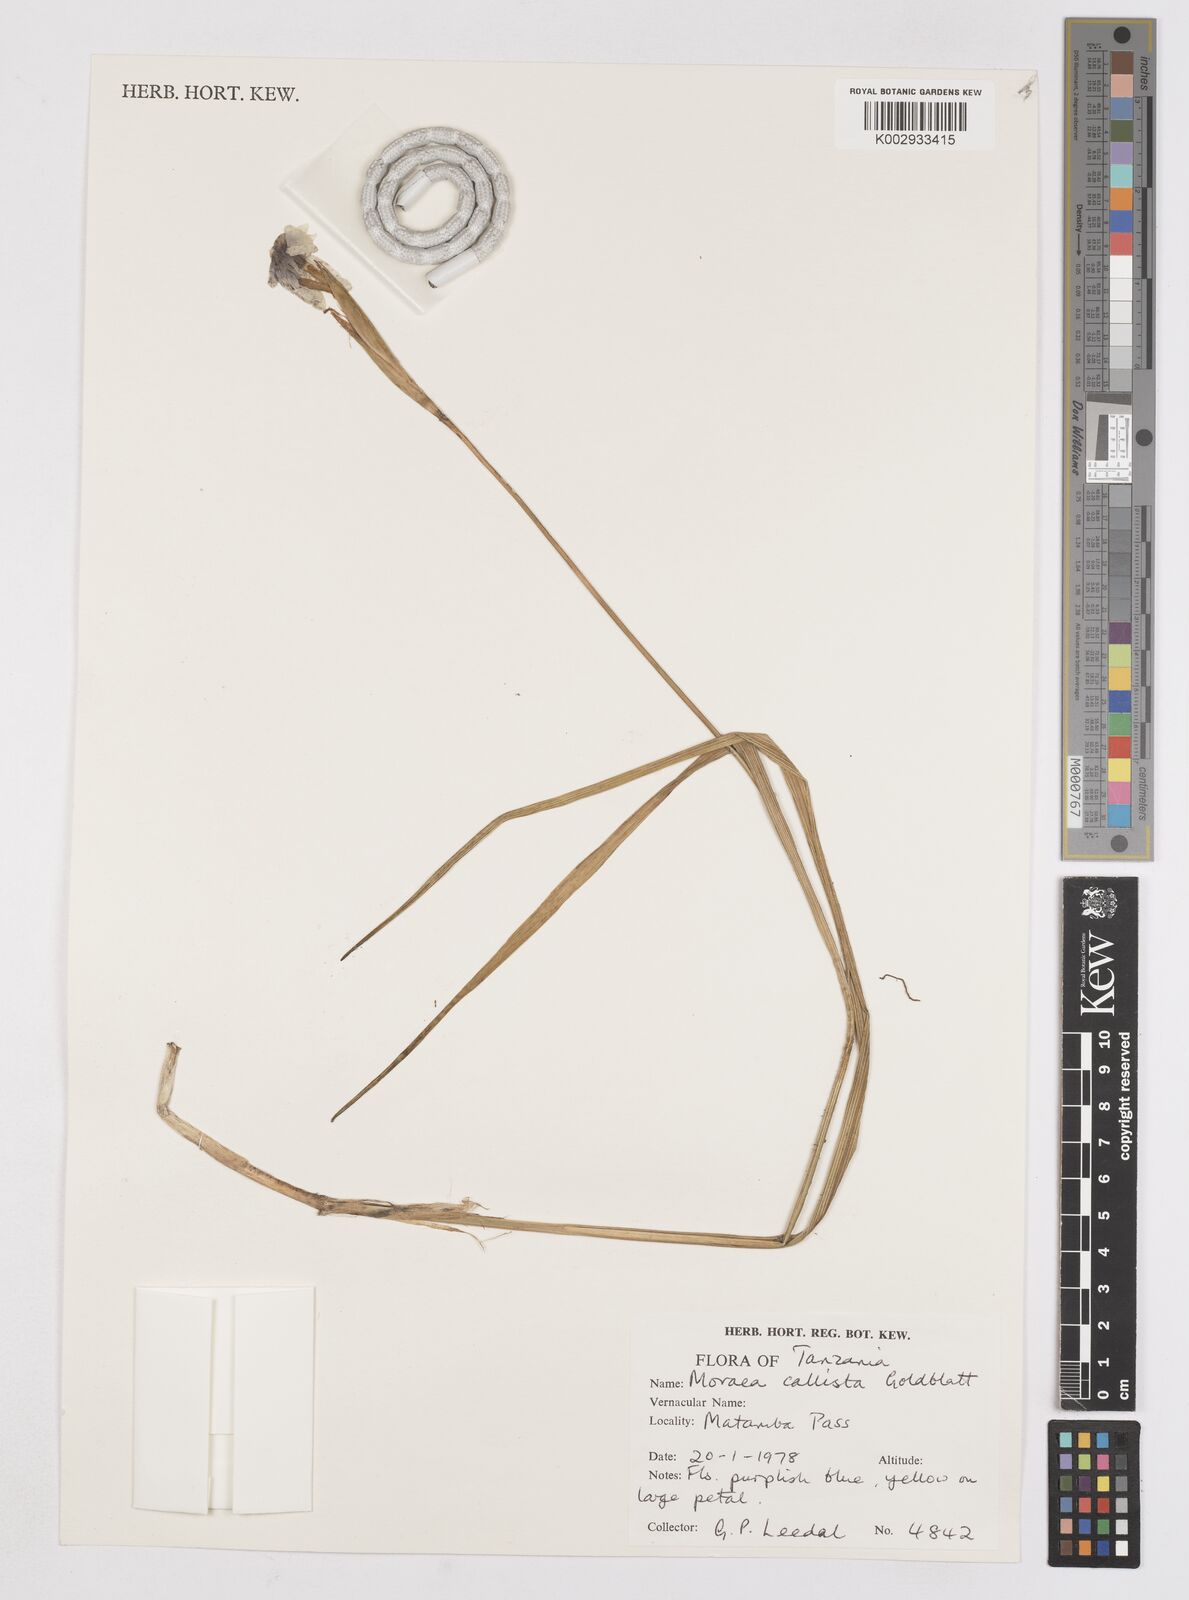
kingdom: Plantae
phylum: Tracheophyta
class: Liliopsida
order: Asparagales
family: Iridaceae
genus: Moraea
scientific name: Moraea callista
